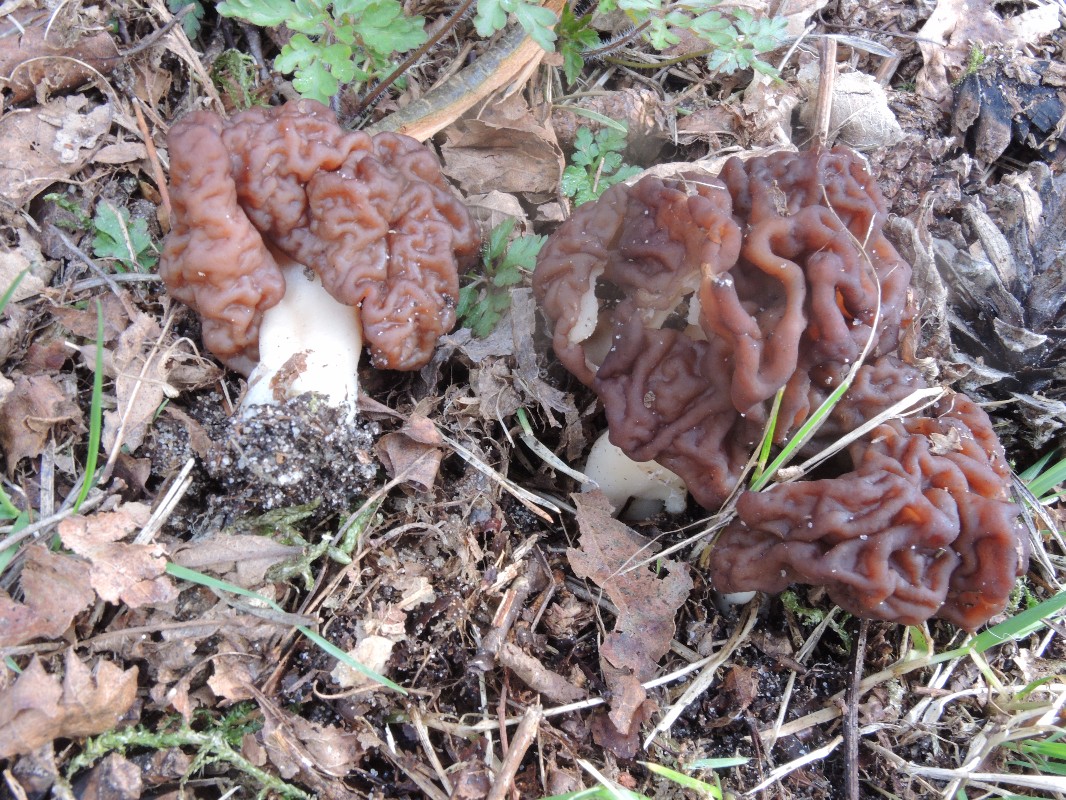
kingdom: Fungi
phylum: Ascomycota
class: Pezizomycetes
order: Pezizales
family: Discinaceae
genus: Gyromitra
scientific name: Gyromitra esculenta
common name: ægte stenmorkel
